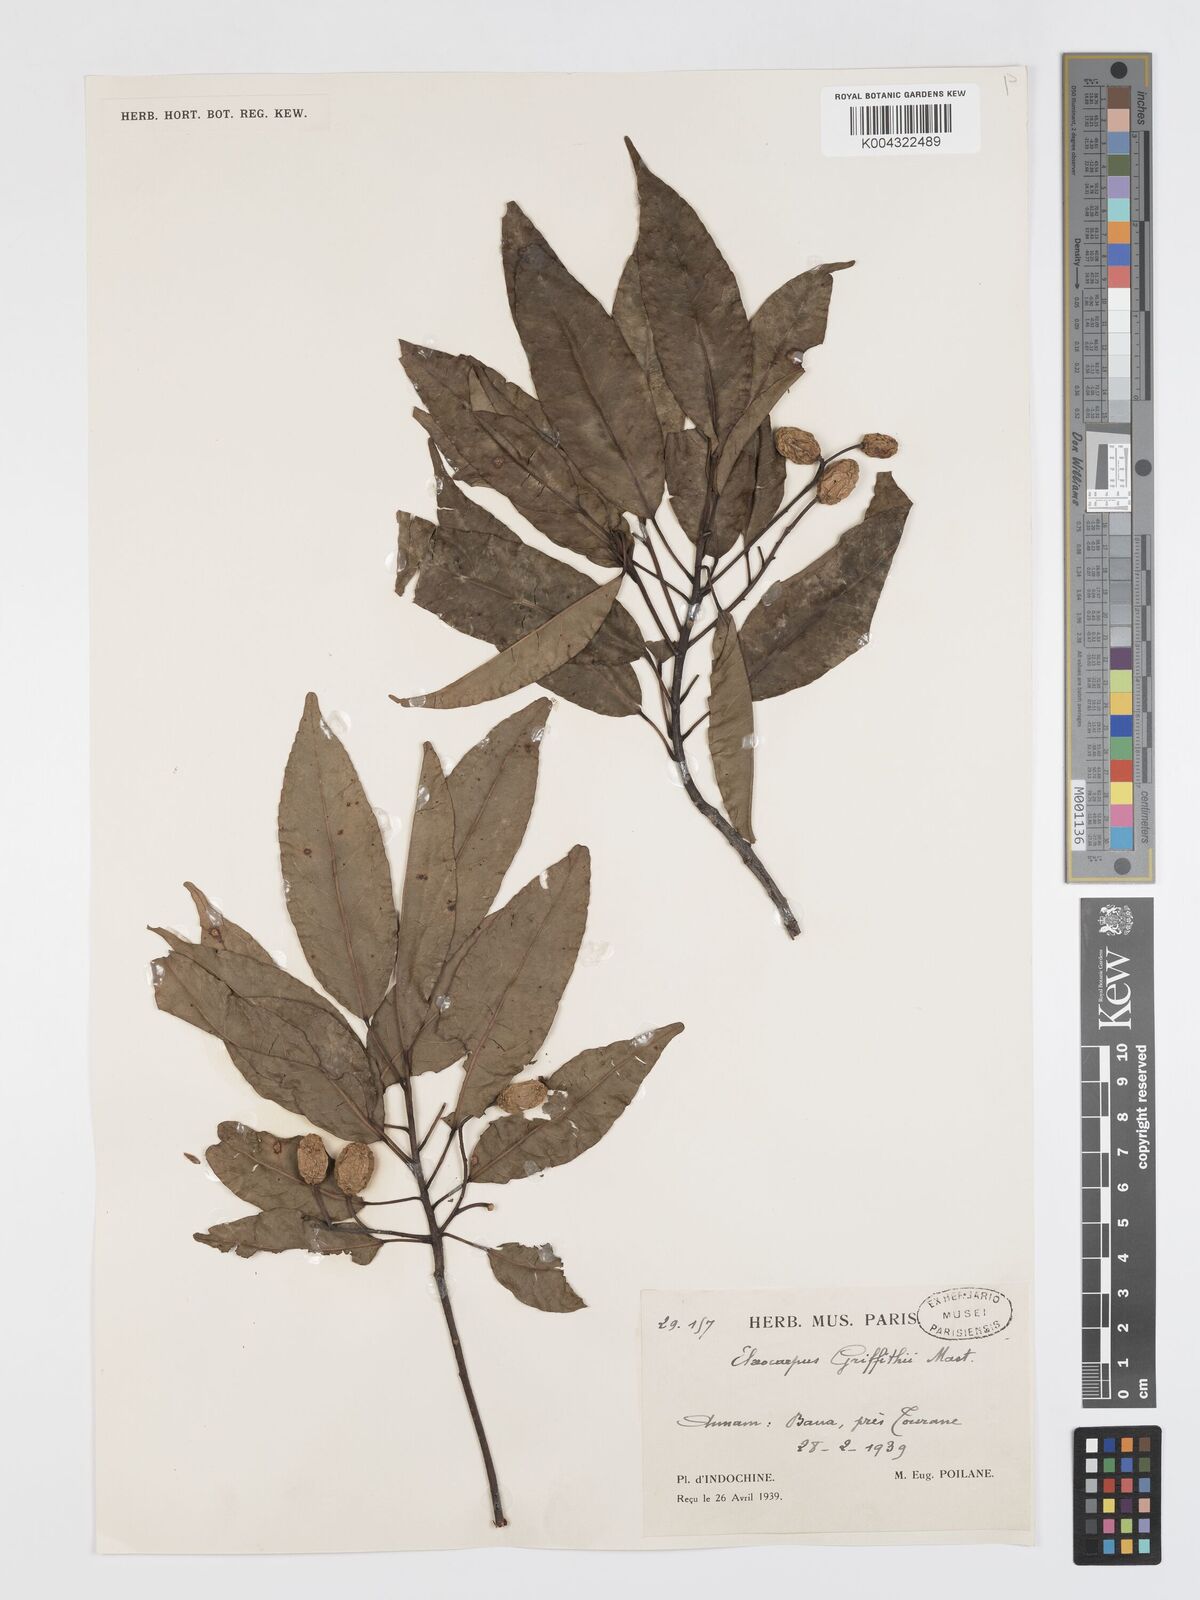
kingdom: Plantae
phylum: Tracheophyta
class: Magnoliopsida
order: Oxalidales
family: Elaeocarpaceae
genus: Elaeocarpus
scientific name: Elaeocarpus griffithii
